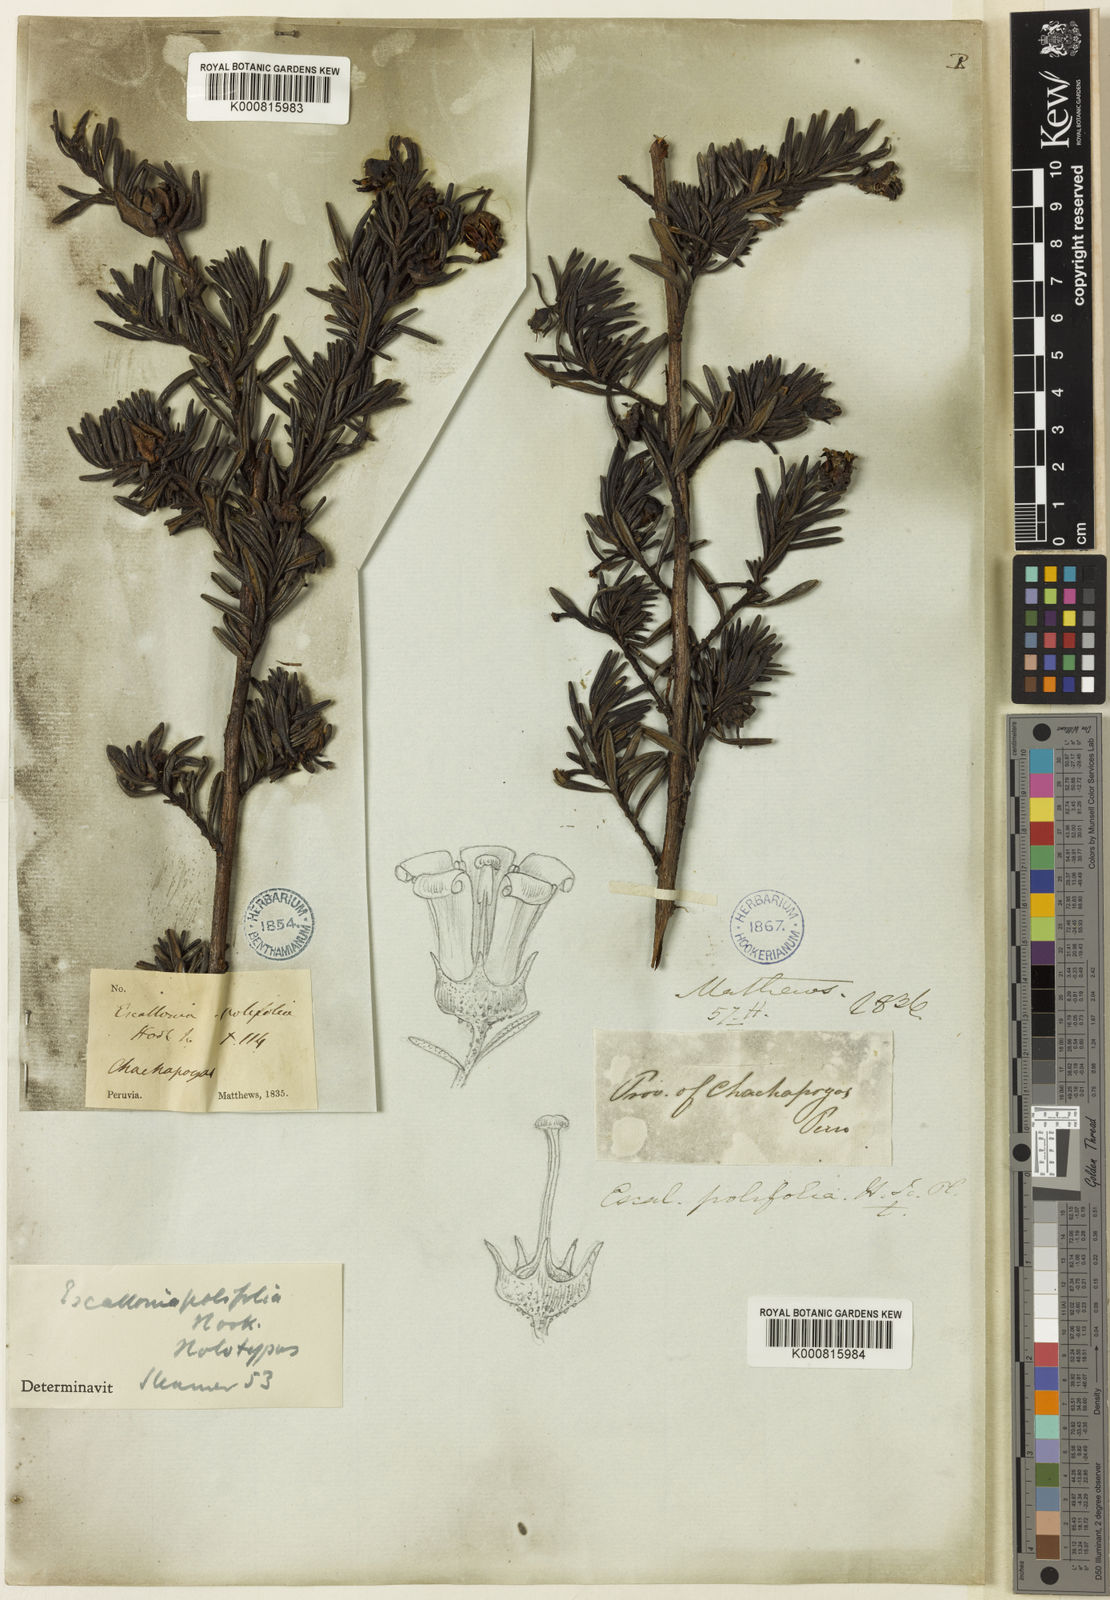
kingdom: Plantae
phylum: Tracheophyta
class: Magnoliopsida
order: Escalloniales
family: Escalloniaceae
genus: Escallonia
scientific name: Escallonia polifolia
